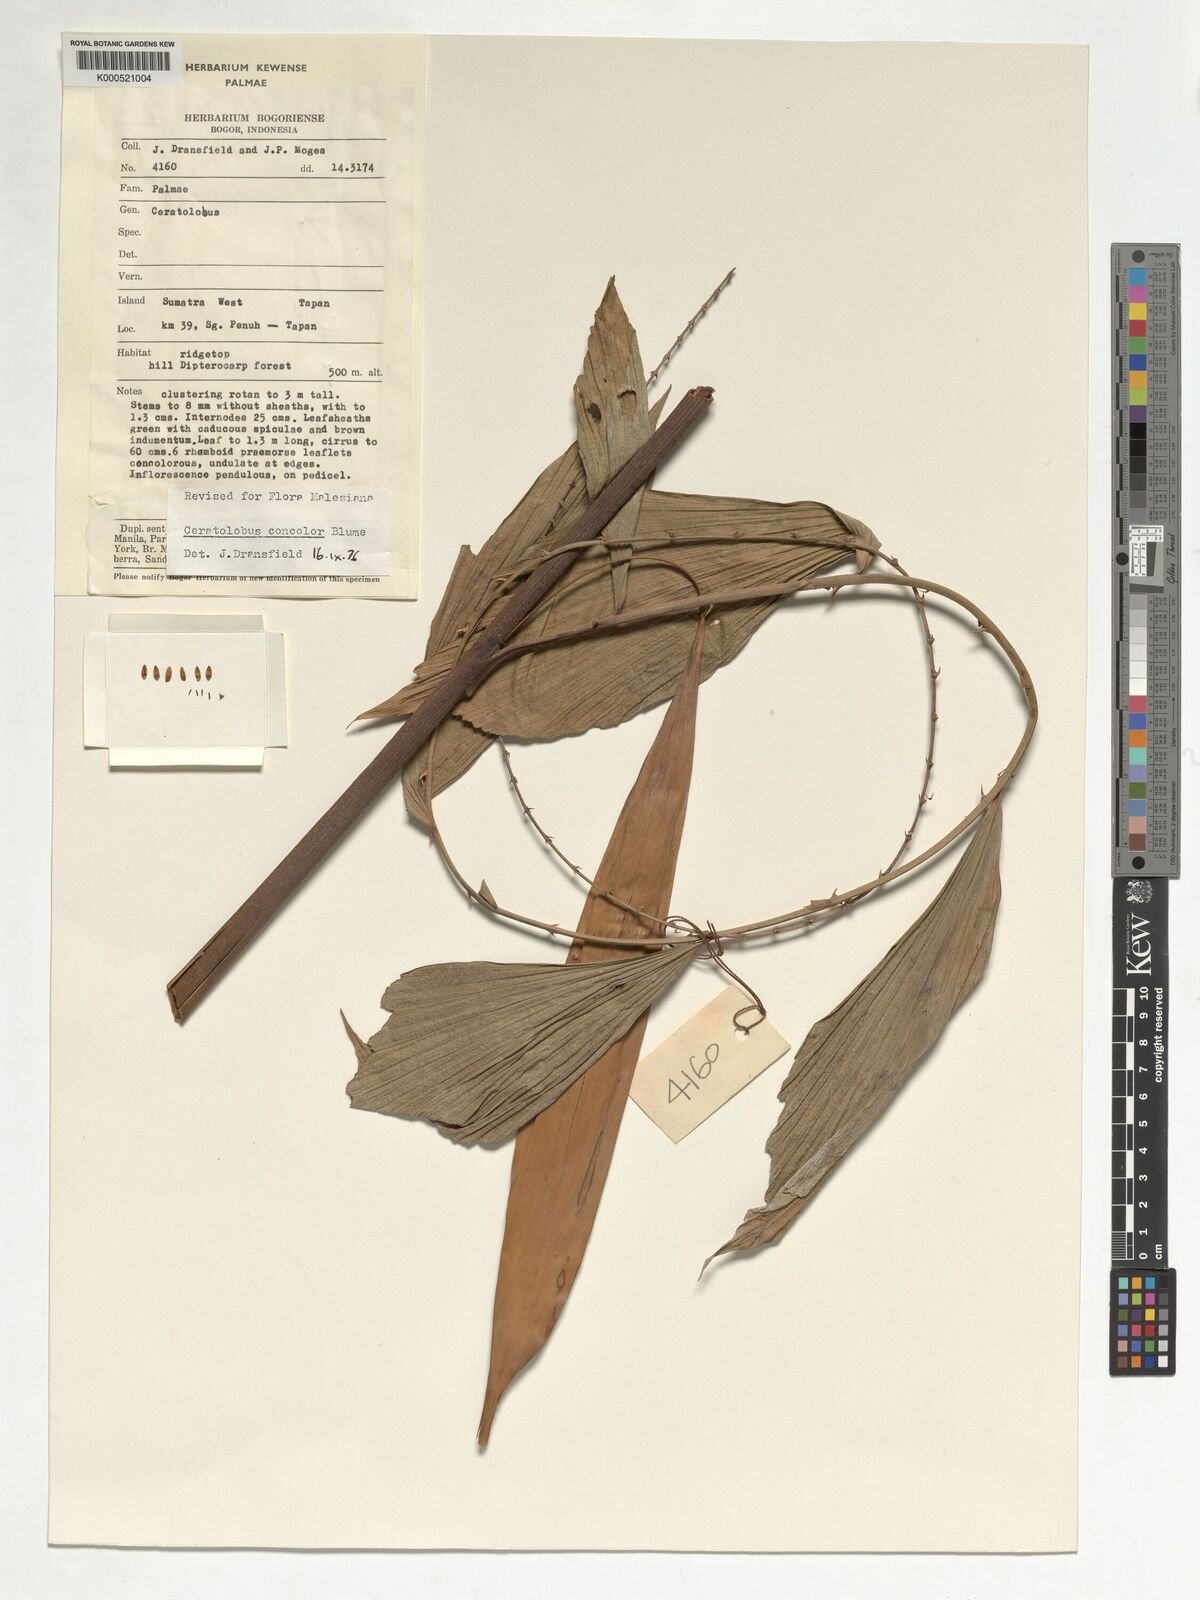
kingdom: Plantae
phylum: Tracheophyta
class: Liliopsida
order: Arecales
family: Arecaceae
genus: Calamus
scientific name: Calamus concolor
